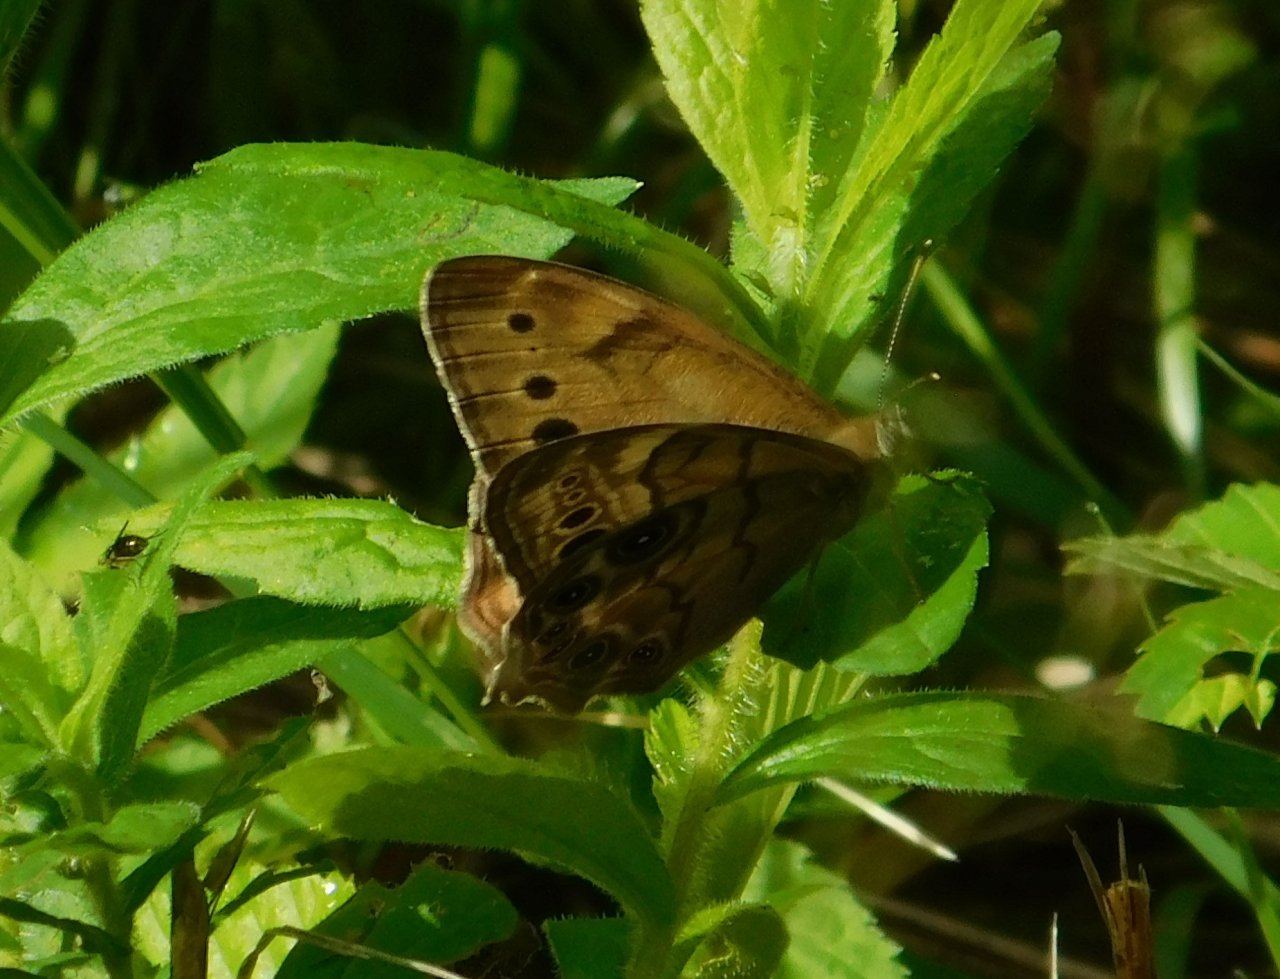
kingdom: Animalia
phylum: Arthropoda
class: Insecta
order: Lepidoptera
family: Nymphalidae
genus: Lethe
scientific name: Lethe anthedon
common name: Northern Pearly-Eye
